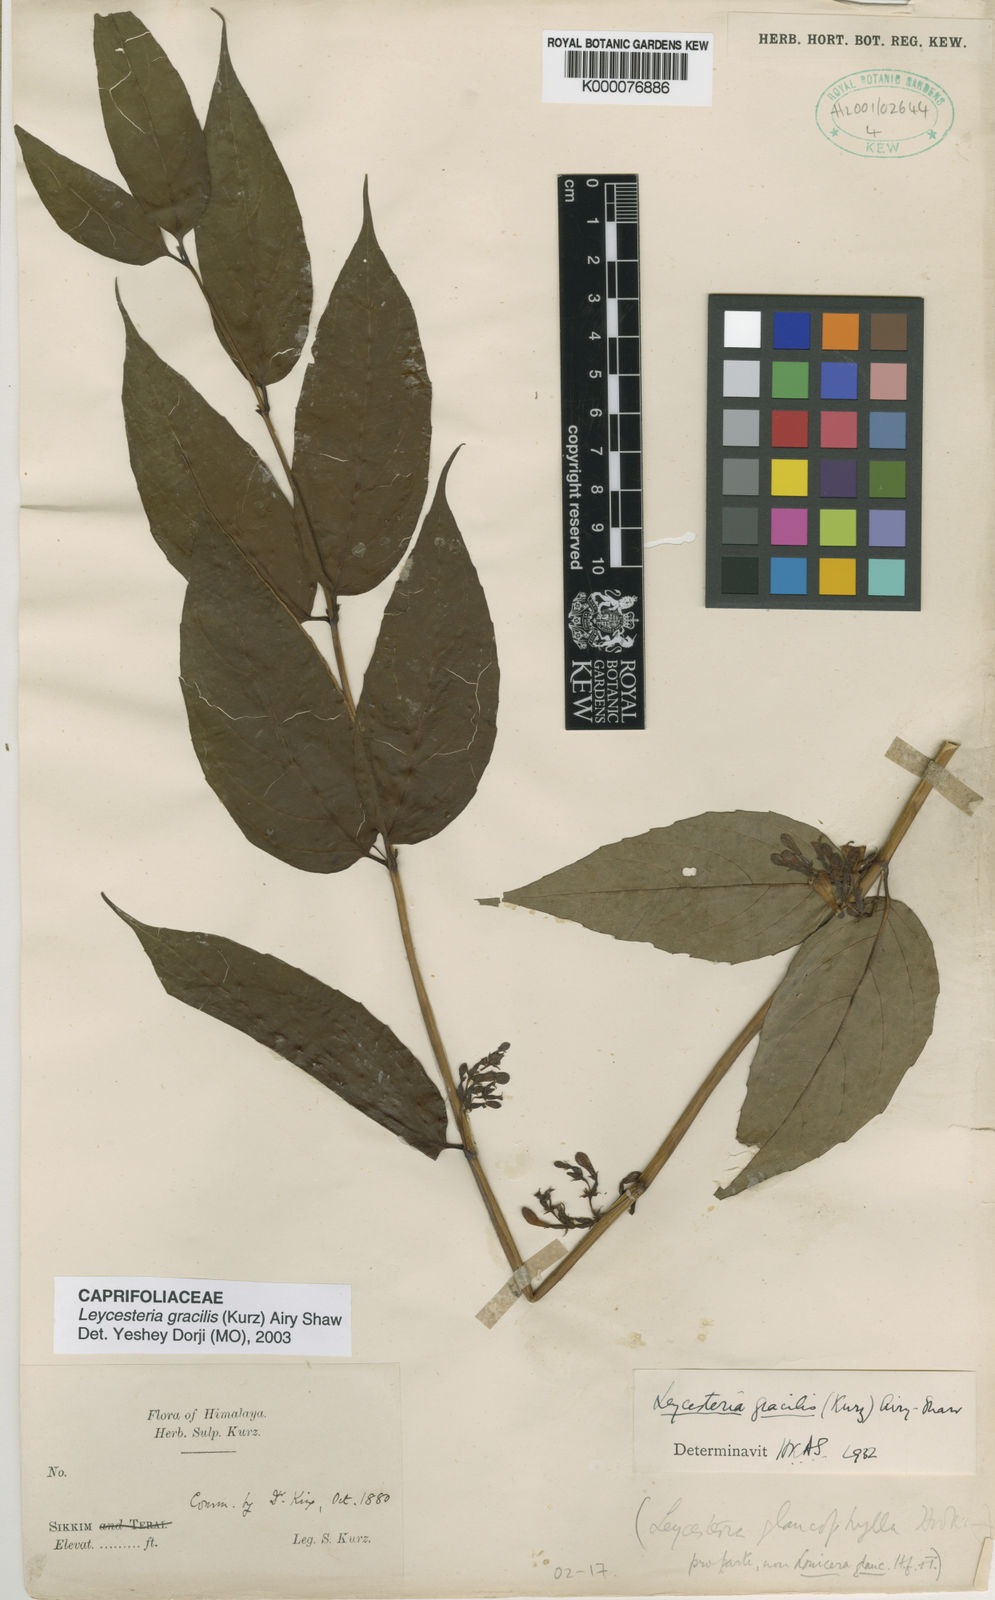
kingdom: Plantae
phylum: Tracheophyta
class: Magnoliopsida
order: Dipsacales
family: Caprifoliaceae
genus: Leycesteria
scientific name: Leycesteria gracilis
